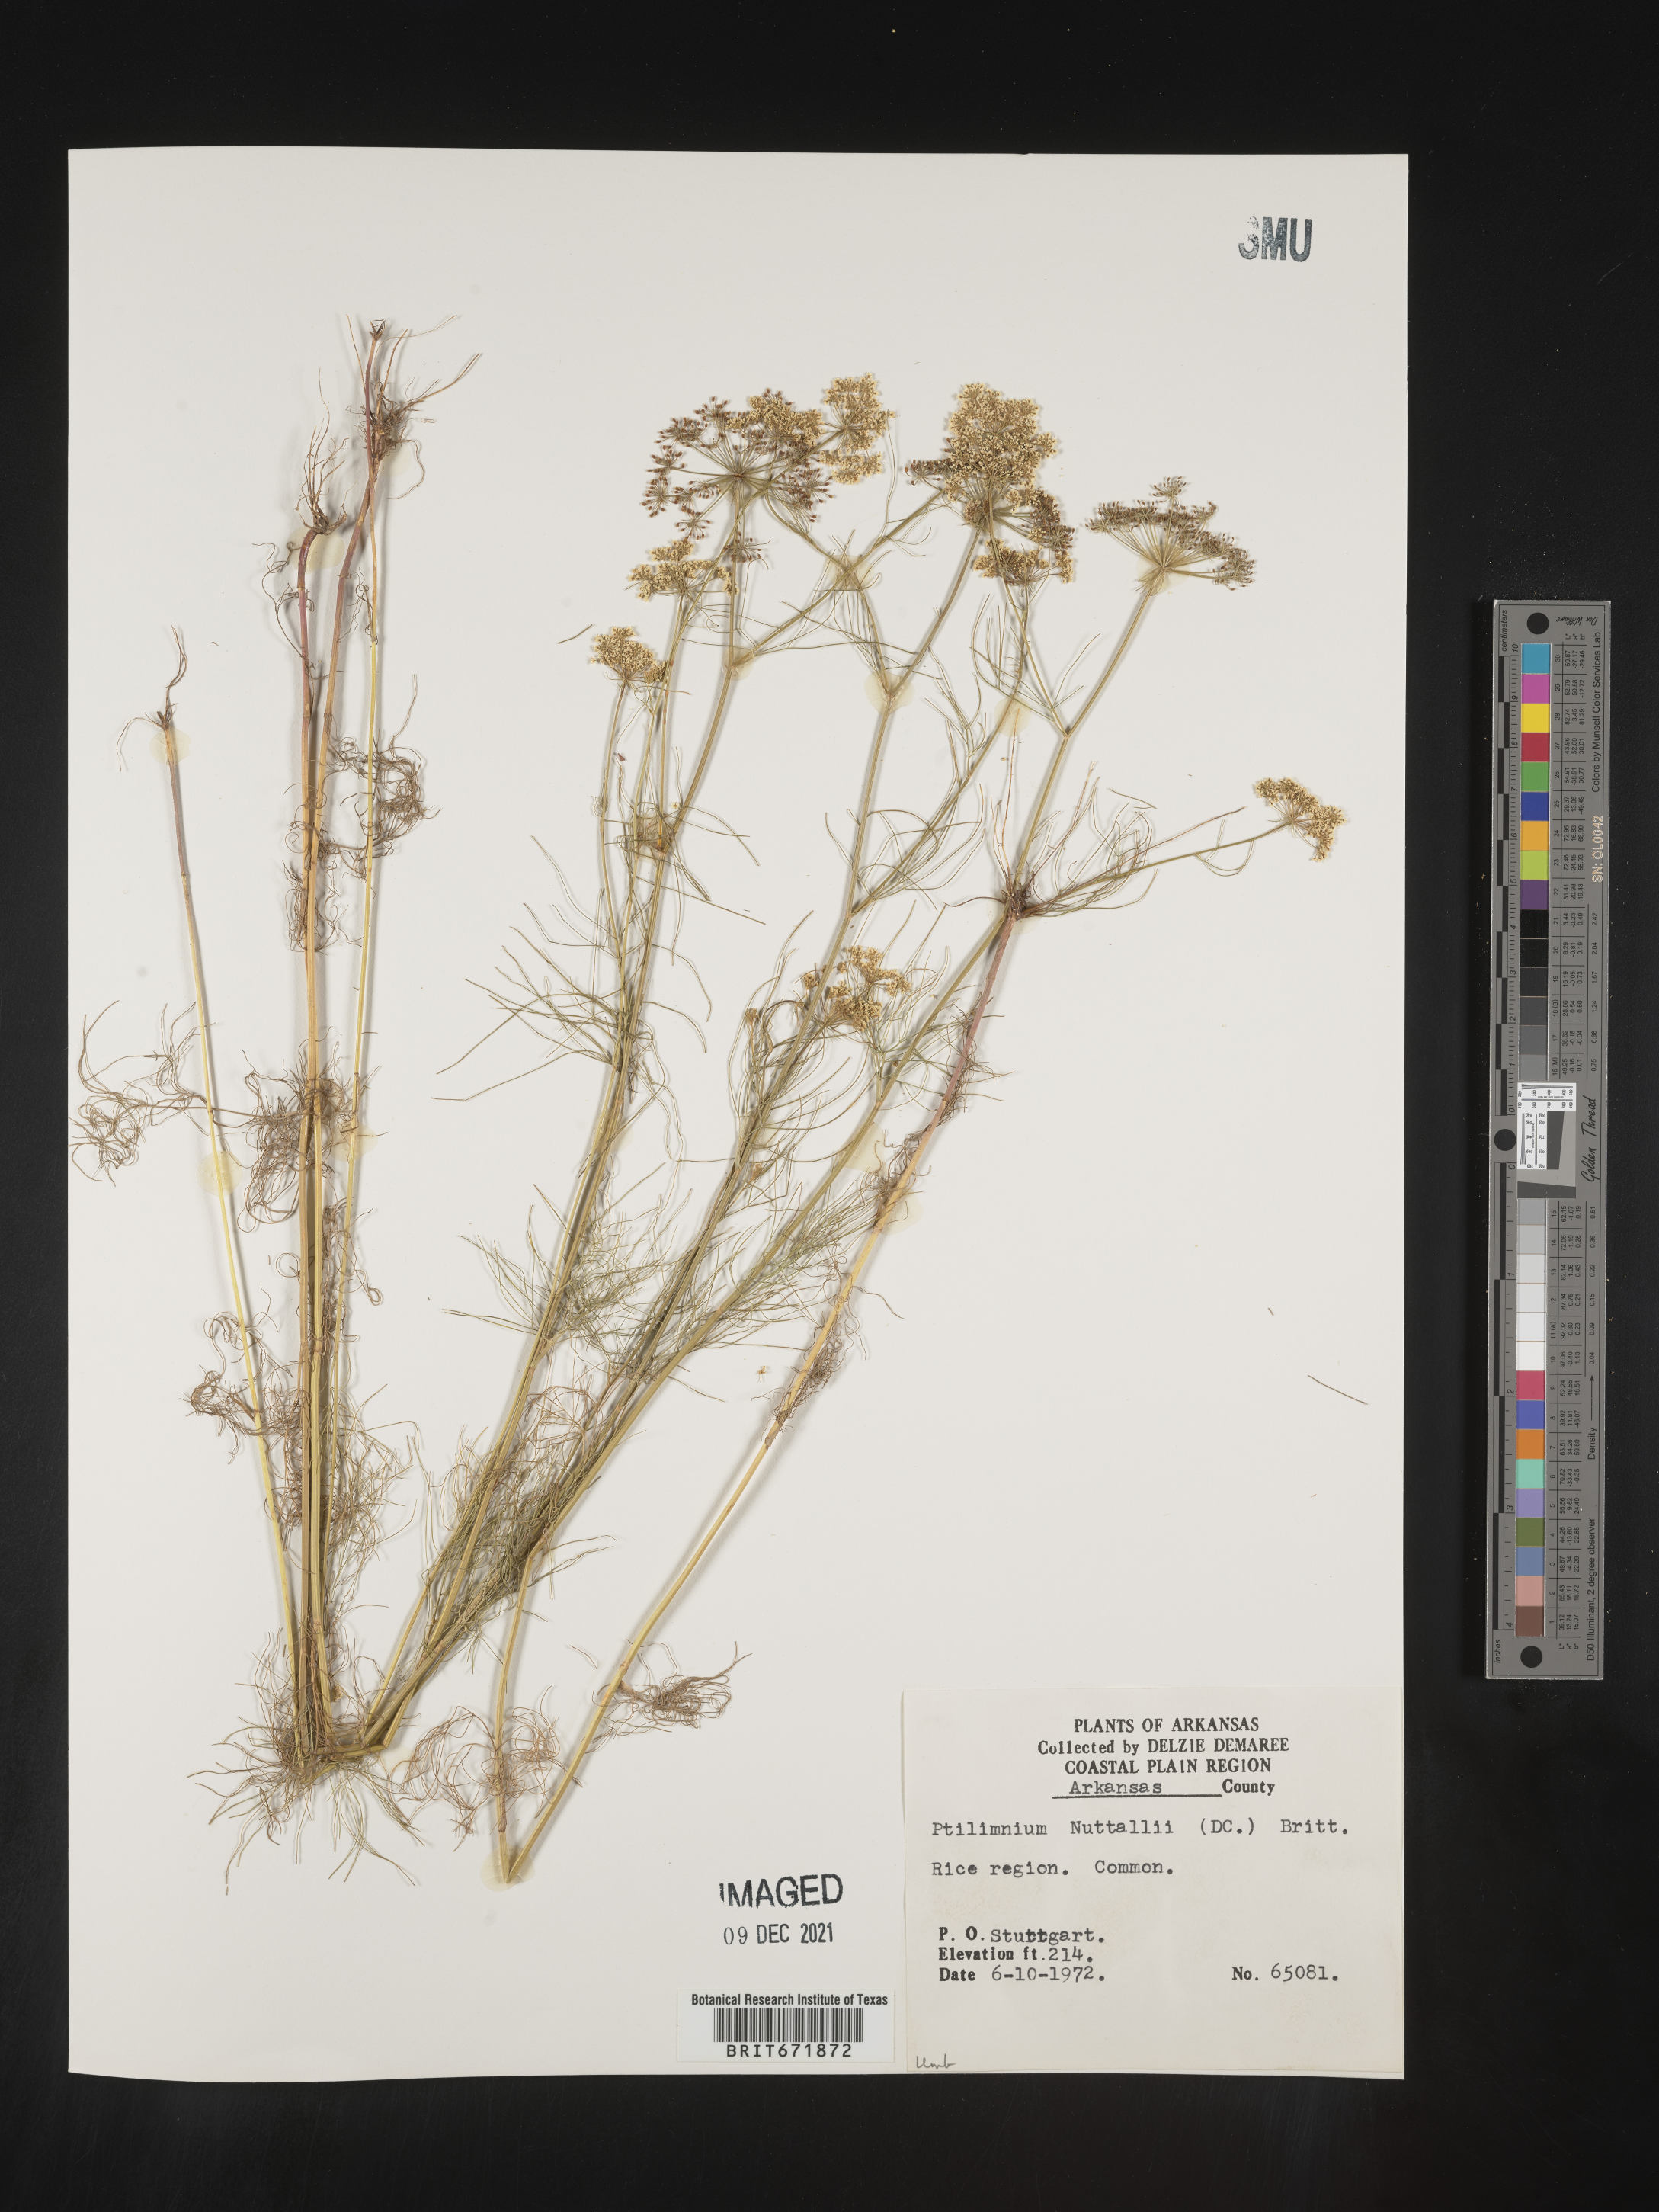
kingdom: Plantae
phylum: Tracheophyta
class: Magnoliopsida
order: Apiales
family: Apiaceae
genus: Ptilimnium
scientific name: Ptilimnium nuttallii
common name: Ozark bishop's-weed
